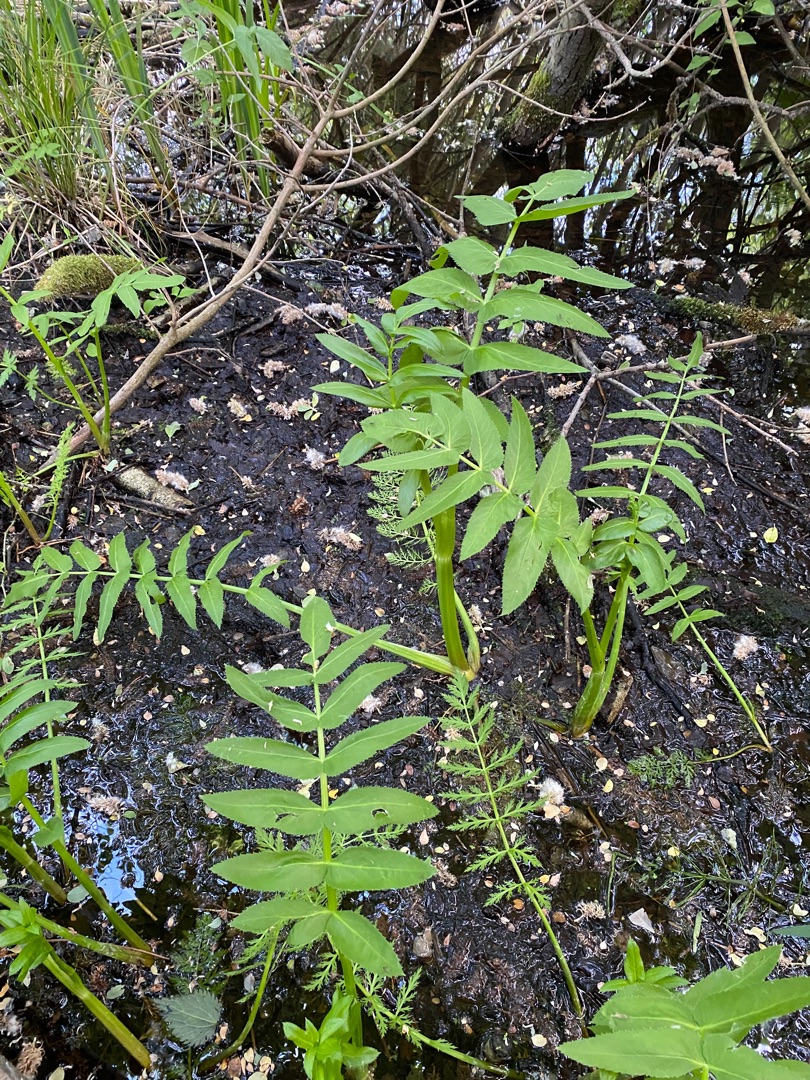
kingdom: Plantae
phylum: Tracheophyta
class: Magnoliopsida
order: Apiales
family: Apiaceae
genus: Sium
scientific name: Sium latifolium
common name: Bredbladet mærke
